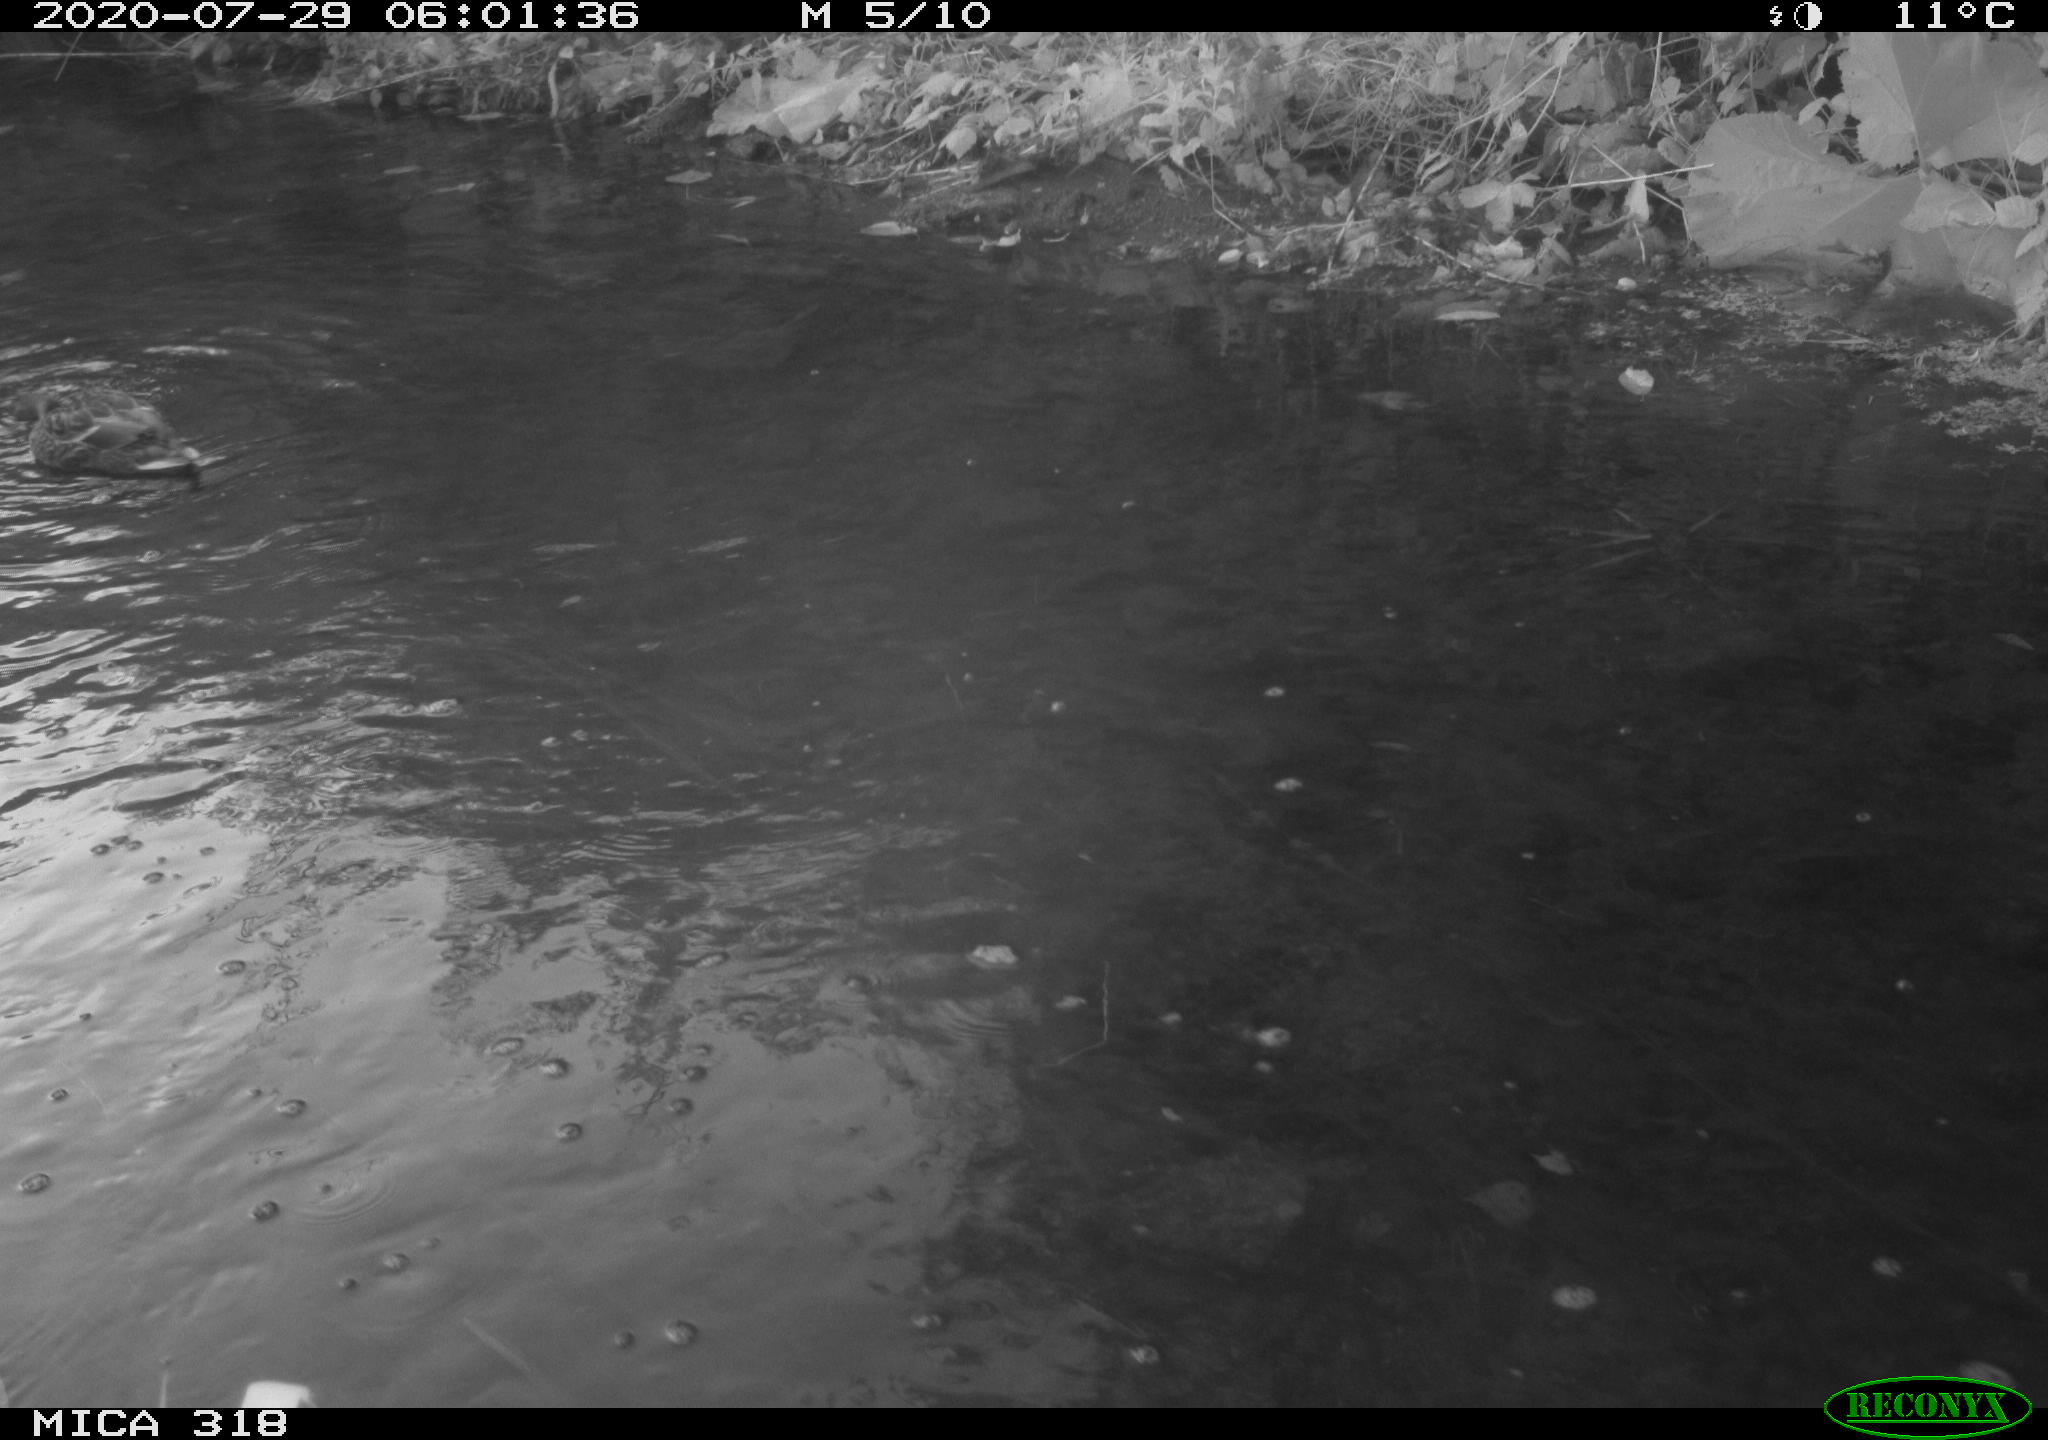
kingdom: Animalia
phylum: Chordata
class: Aves
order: Anseriformes
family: Anatidae
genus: Anas
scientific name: Anas platyrhynchos
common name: Mallard
